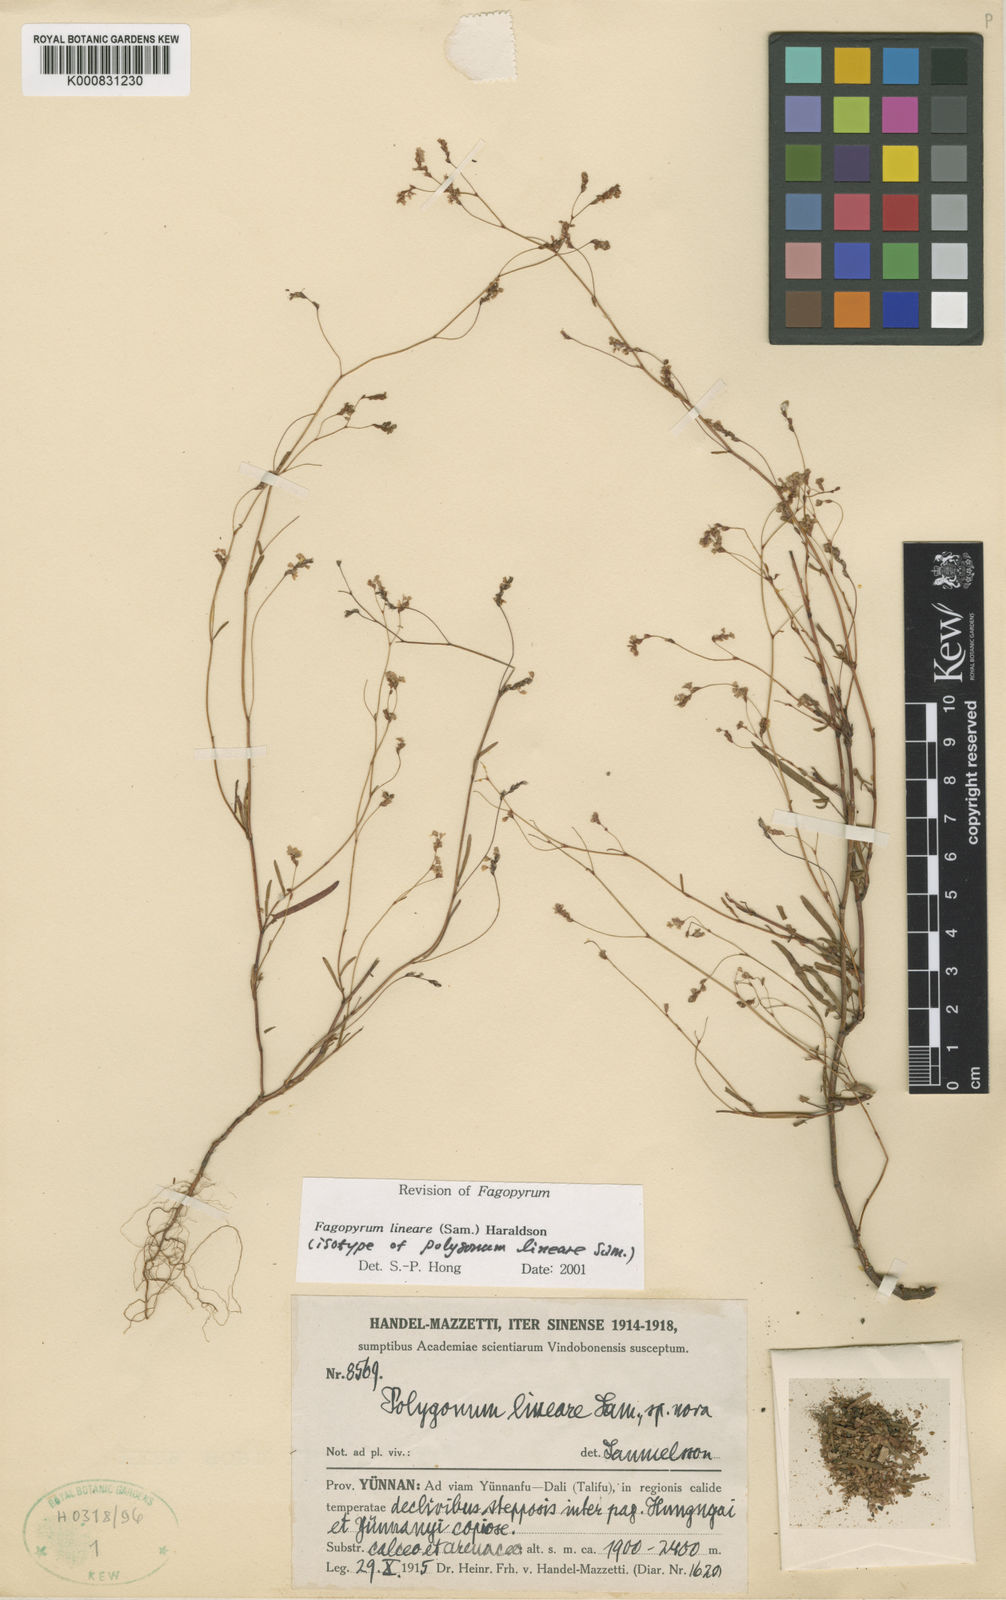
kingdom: Plantae
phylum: Tracheophyta
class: Magnoliopsida
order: Caryophyllales
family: Polygonaceae
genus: Fagopyrum
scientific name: Fagopyrum lineare
